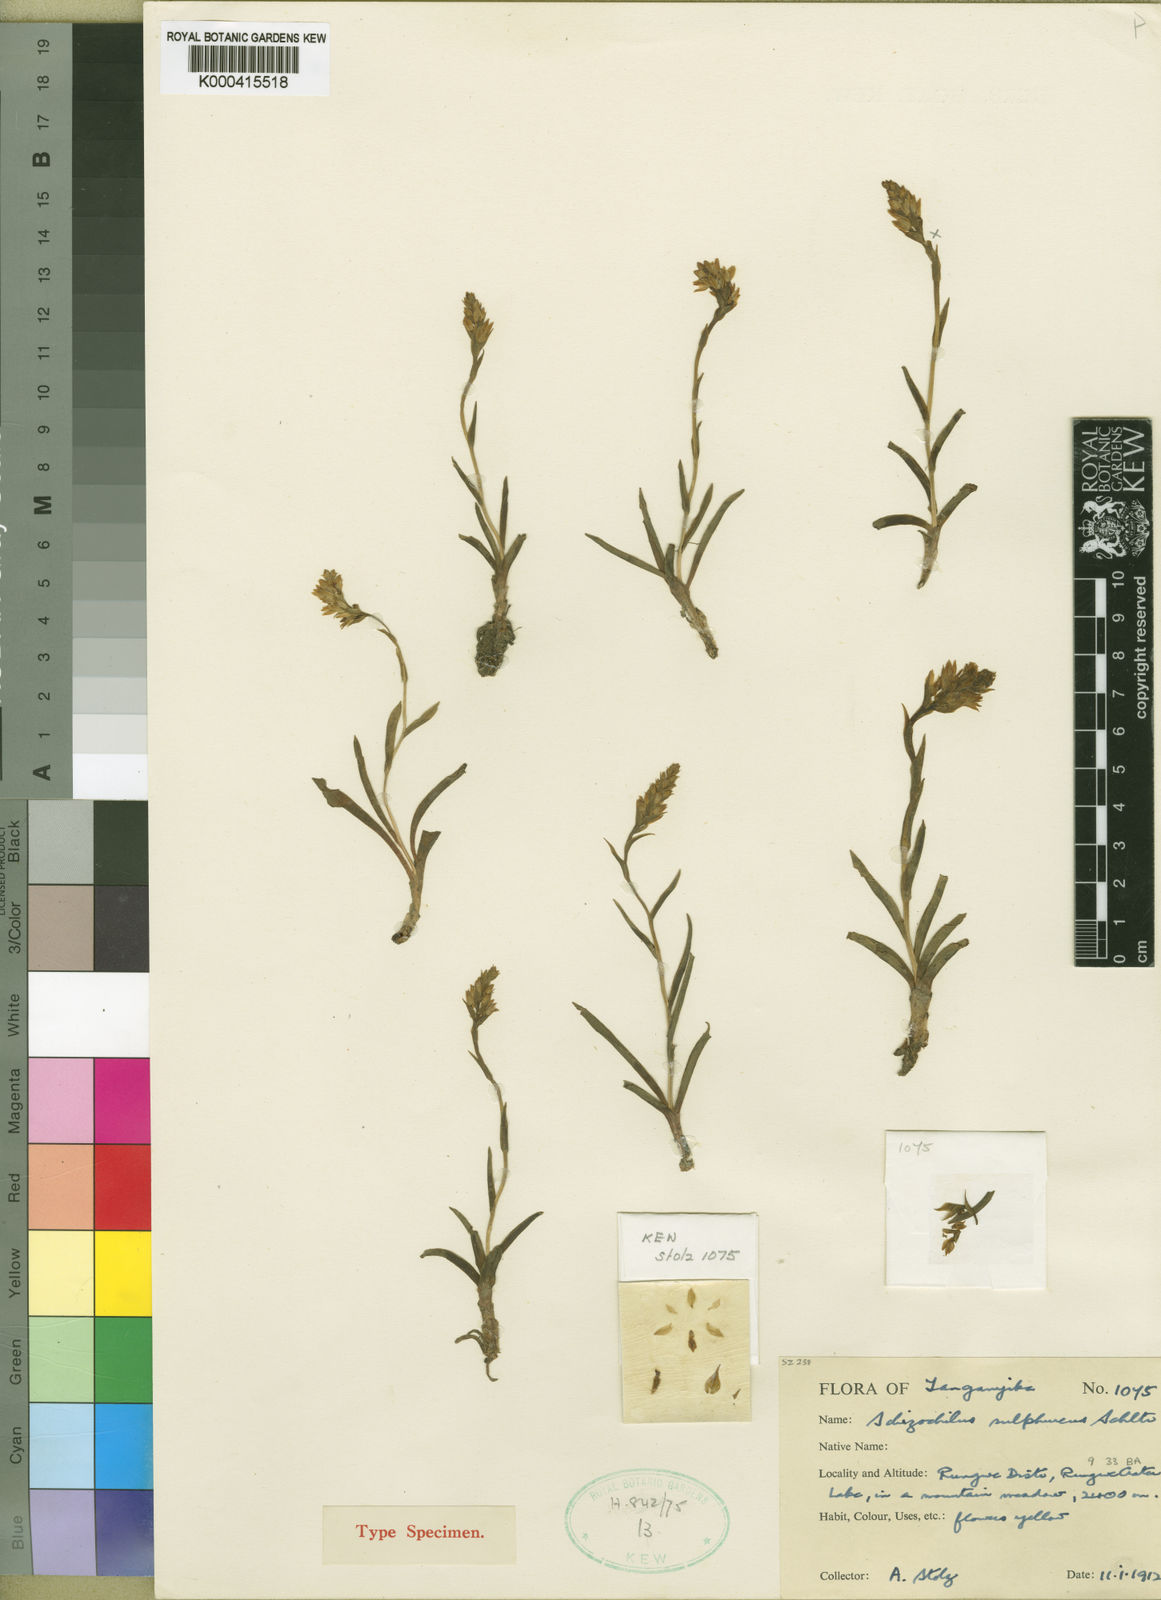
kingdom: Plantae
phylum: Tracheophyta
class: Liliopsida
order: Asparagales
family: Orchidaceae
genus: Schizochilus
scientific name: Schizochilus sulphureus
